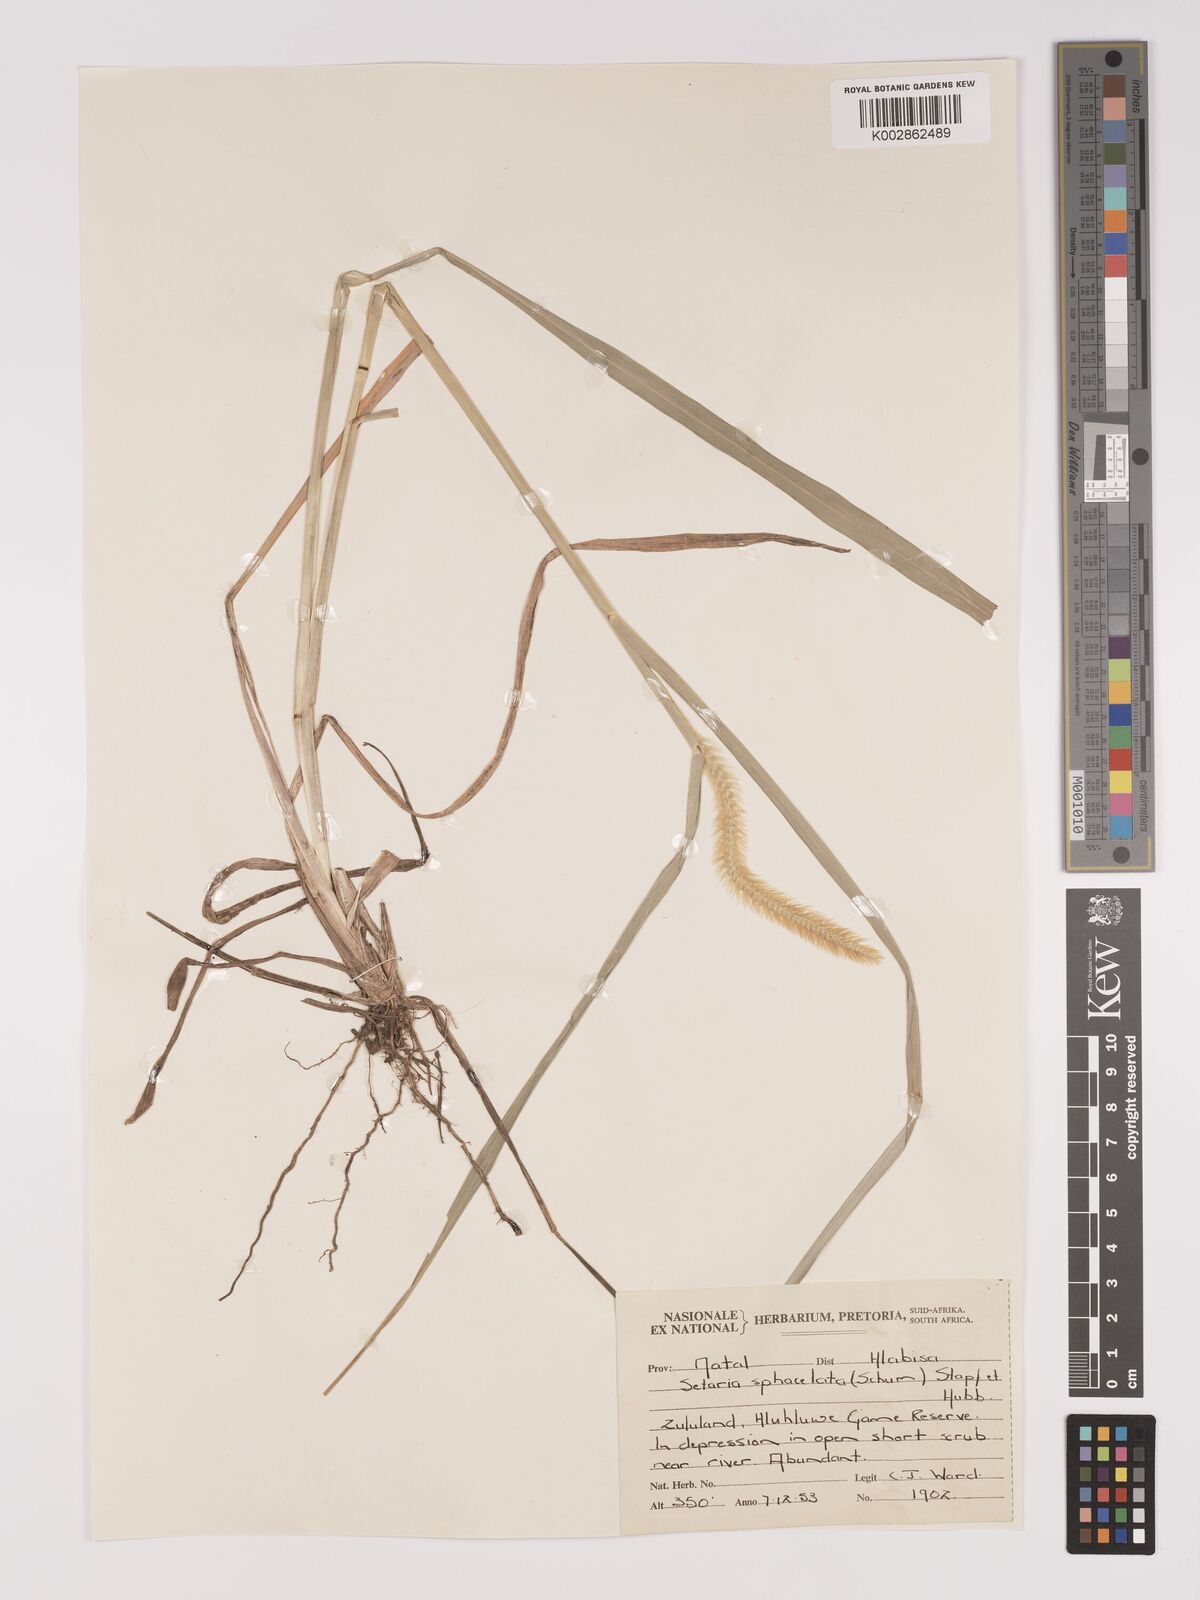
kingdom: Plantae
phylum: Tracheophyta
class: Liliopsida
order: Poales
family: Poaceae
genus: Setaria
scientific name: Setaria sphacelata
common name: African bristlegrass
